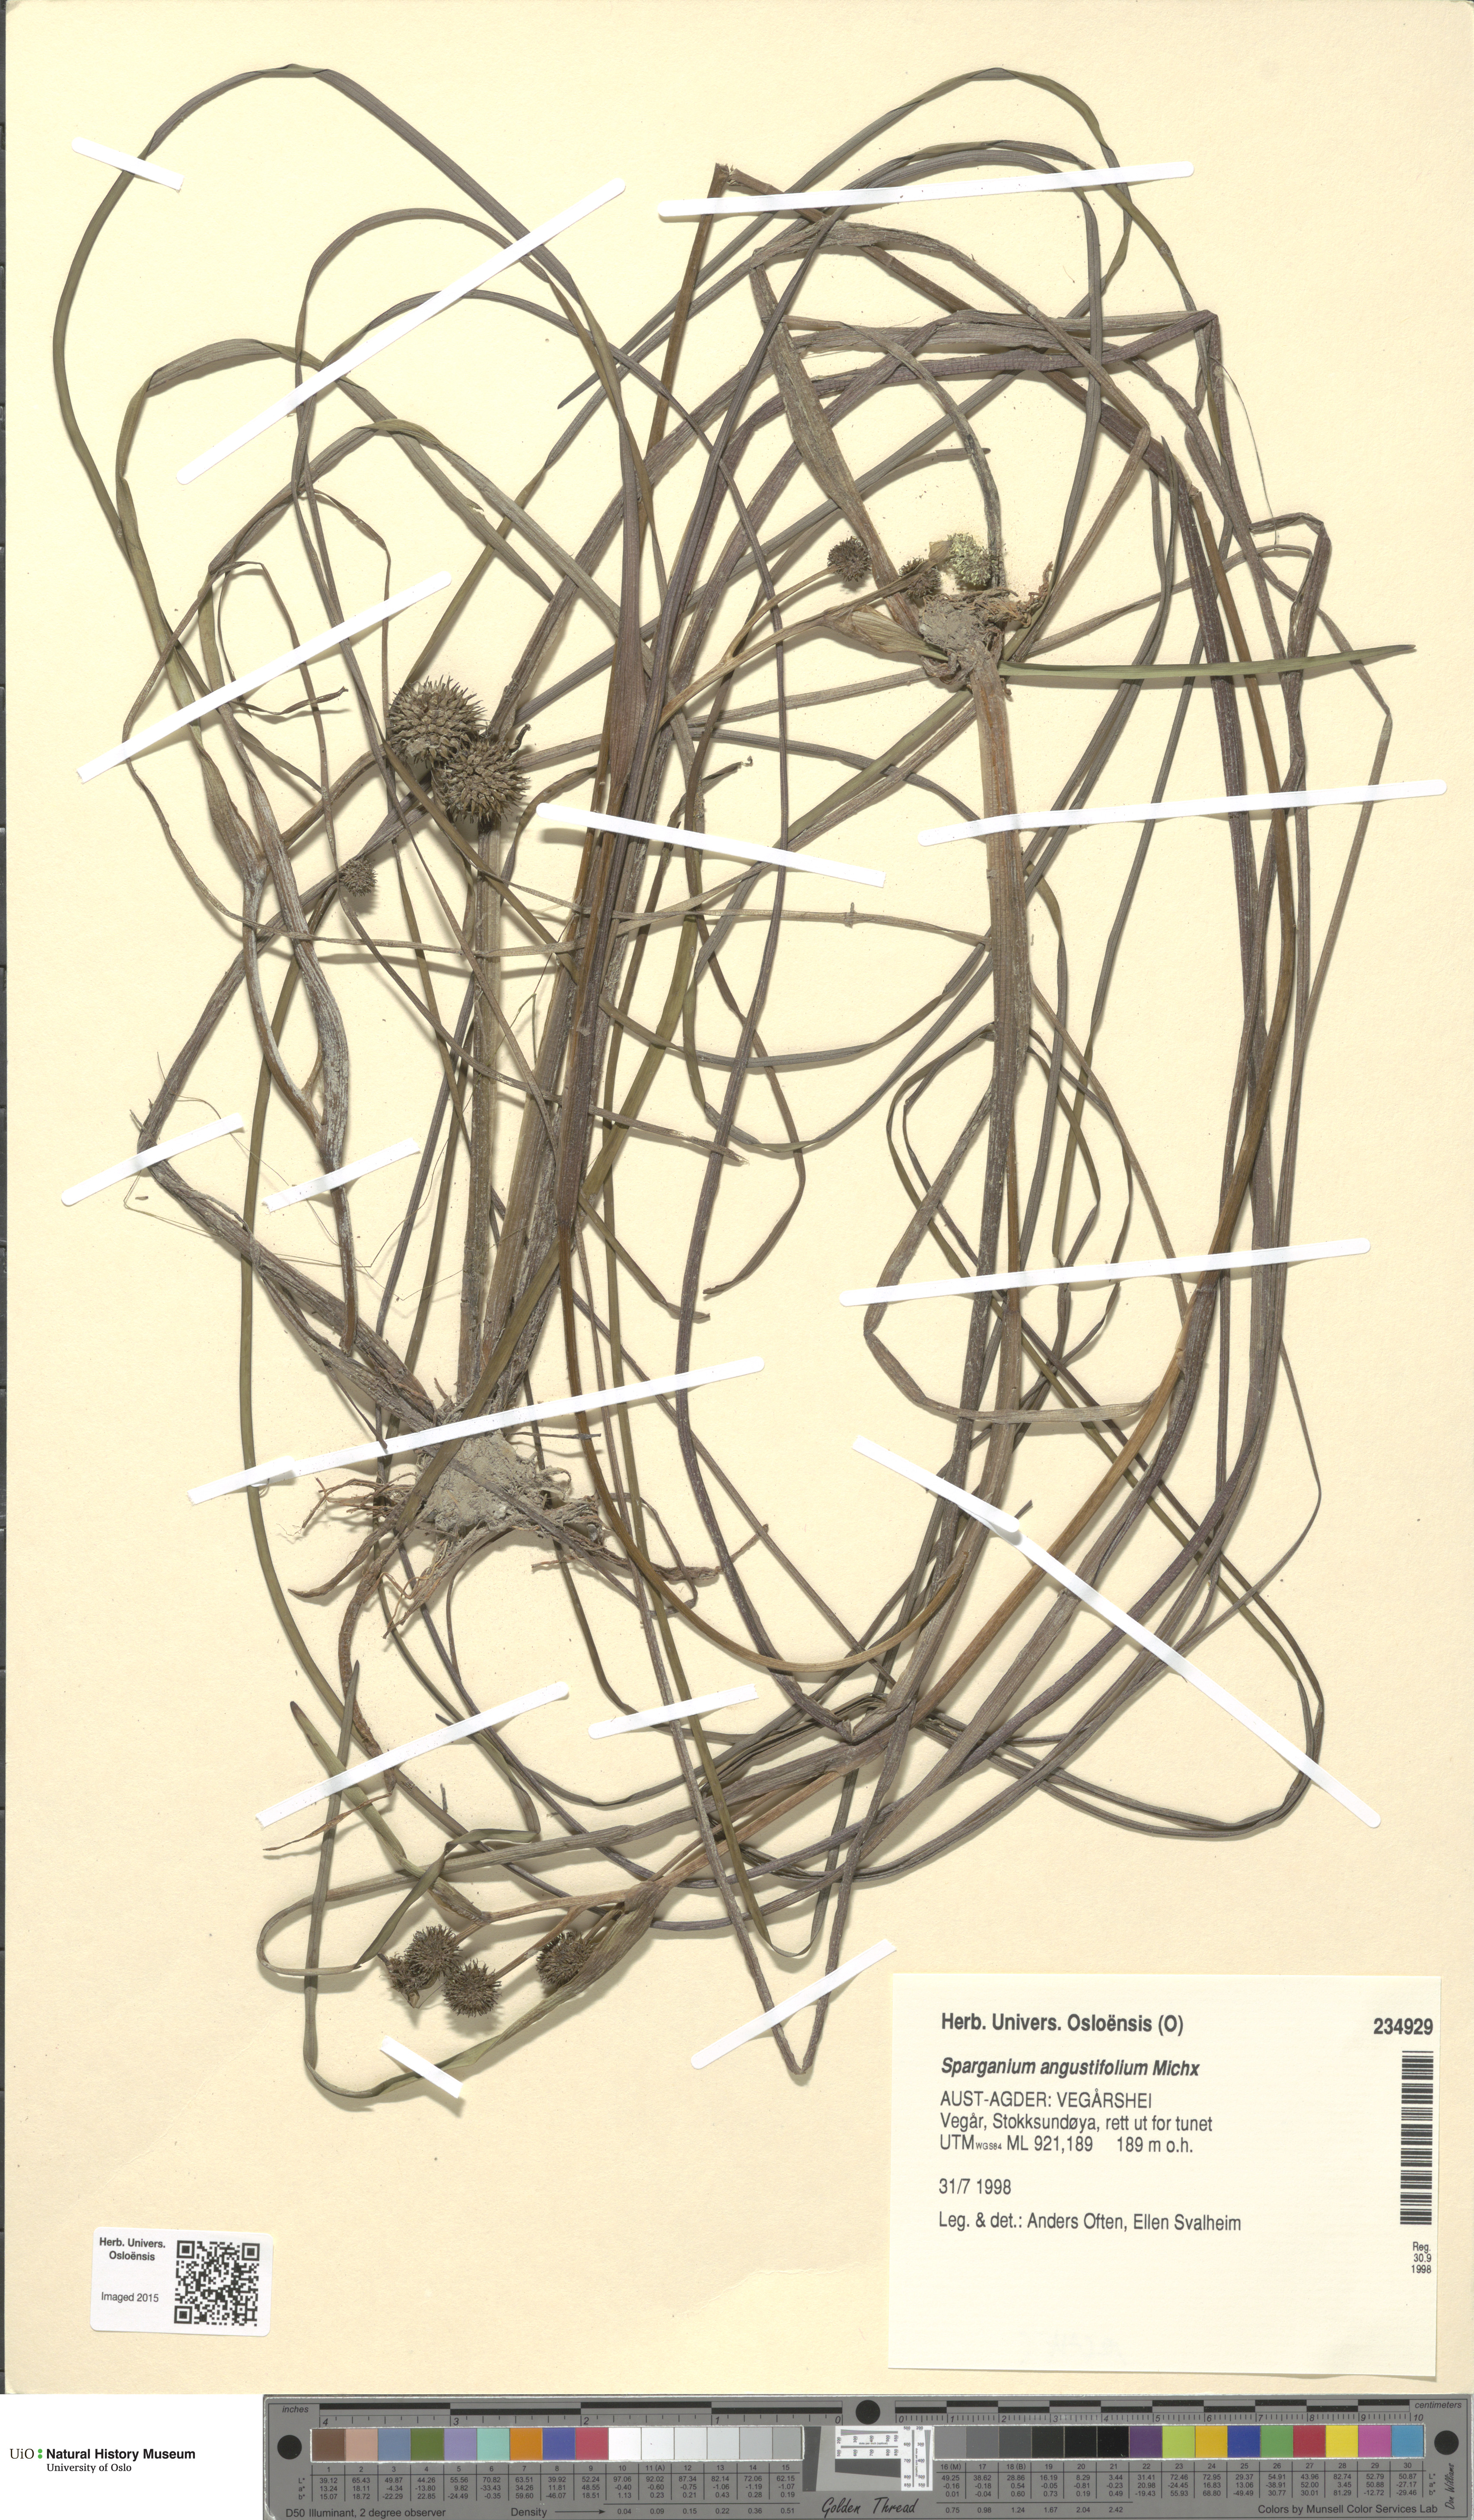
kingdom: Plantae
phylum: Tracheophyta
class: Liliopsida
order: Poales
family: Typhaceae
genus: Sparganium
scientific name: Sparganium angustifolium
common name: Floating bur-reed
